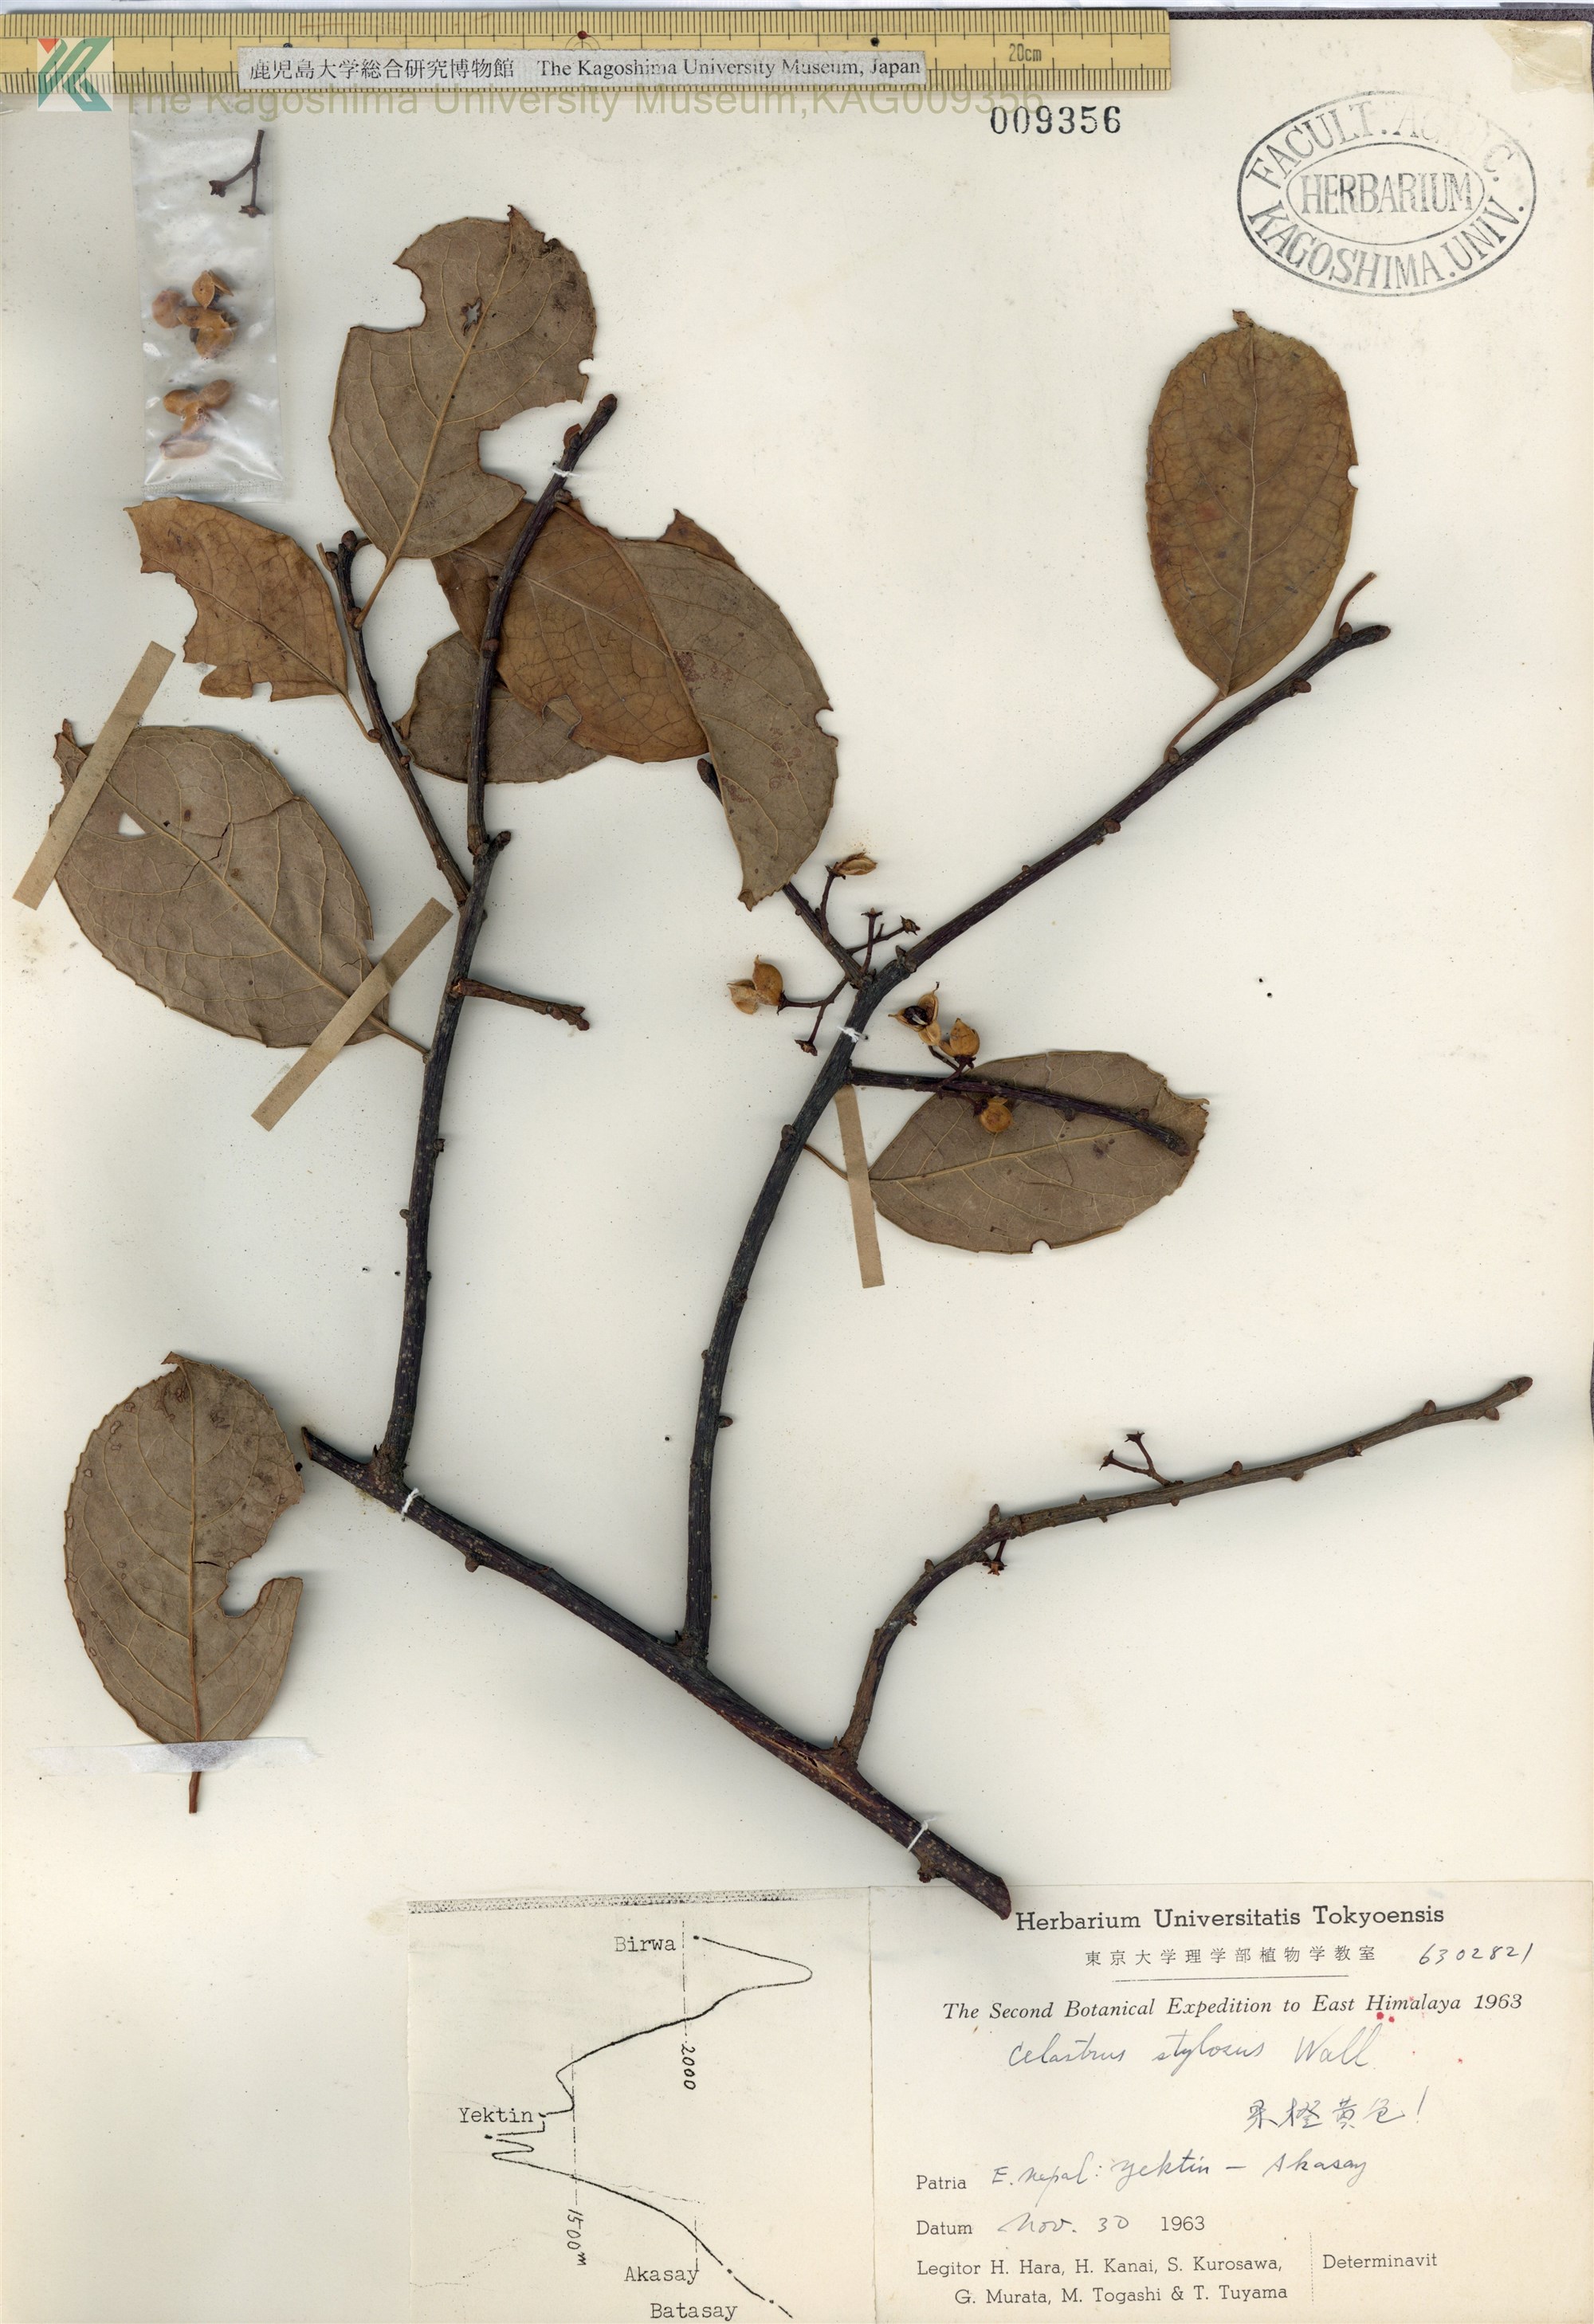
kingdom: Plantae
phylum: Tracheophyta
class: Magnoliopsida
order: Celastrales
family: Celastraceae
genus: Celastrus
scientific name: Celastrus stephanotifolius
